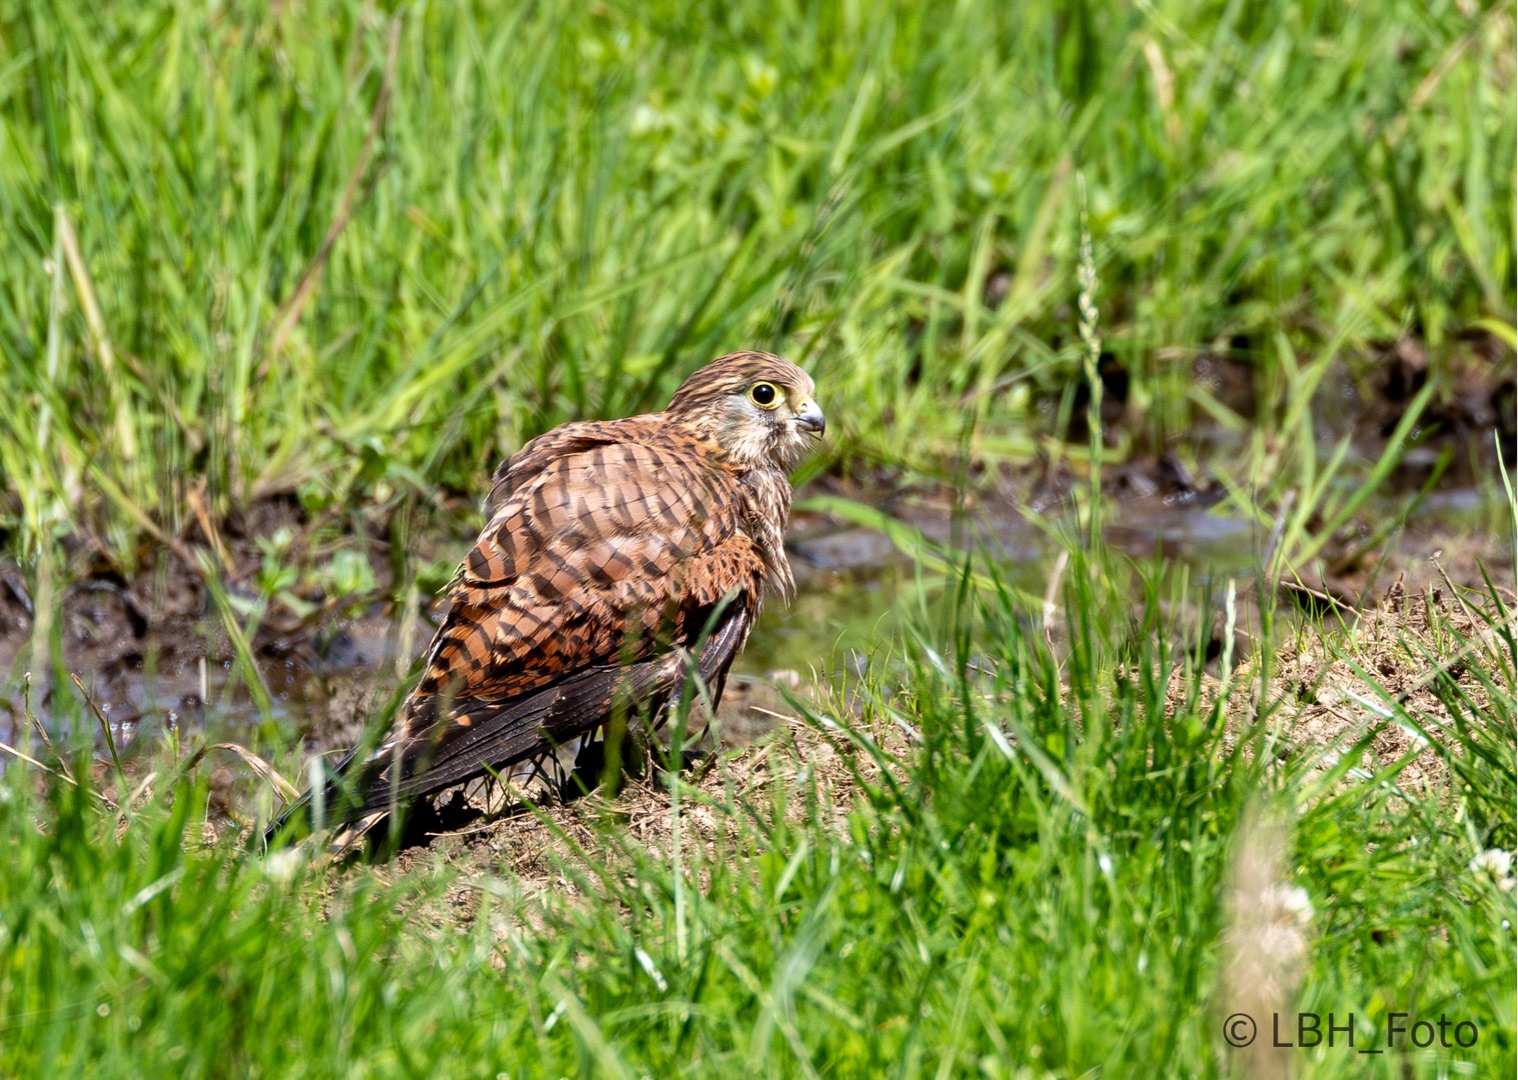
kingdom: Animalia
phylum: Chordata
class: Aves
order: Falconiformes
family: Falconidae
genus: Falco
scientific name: Falco tinnunculus
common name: Tårnfalk
